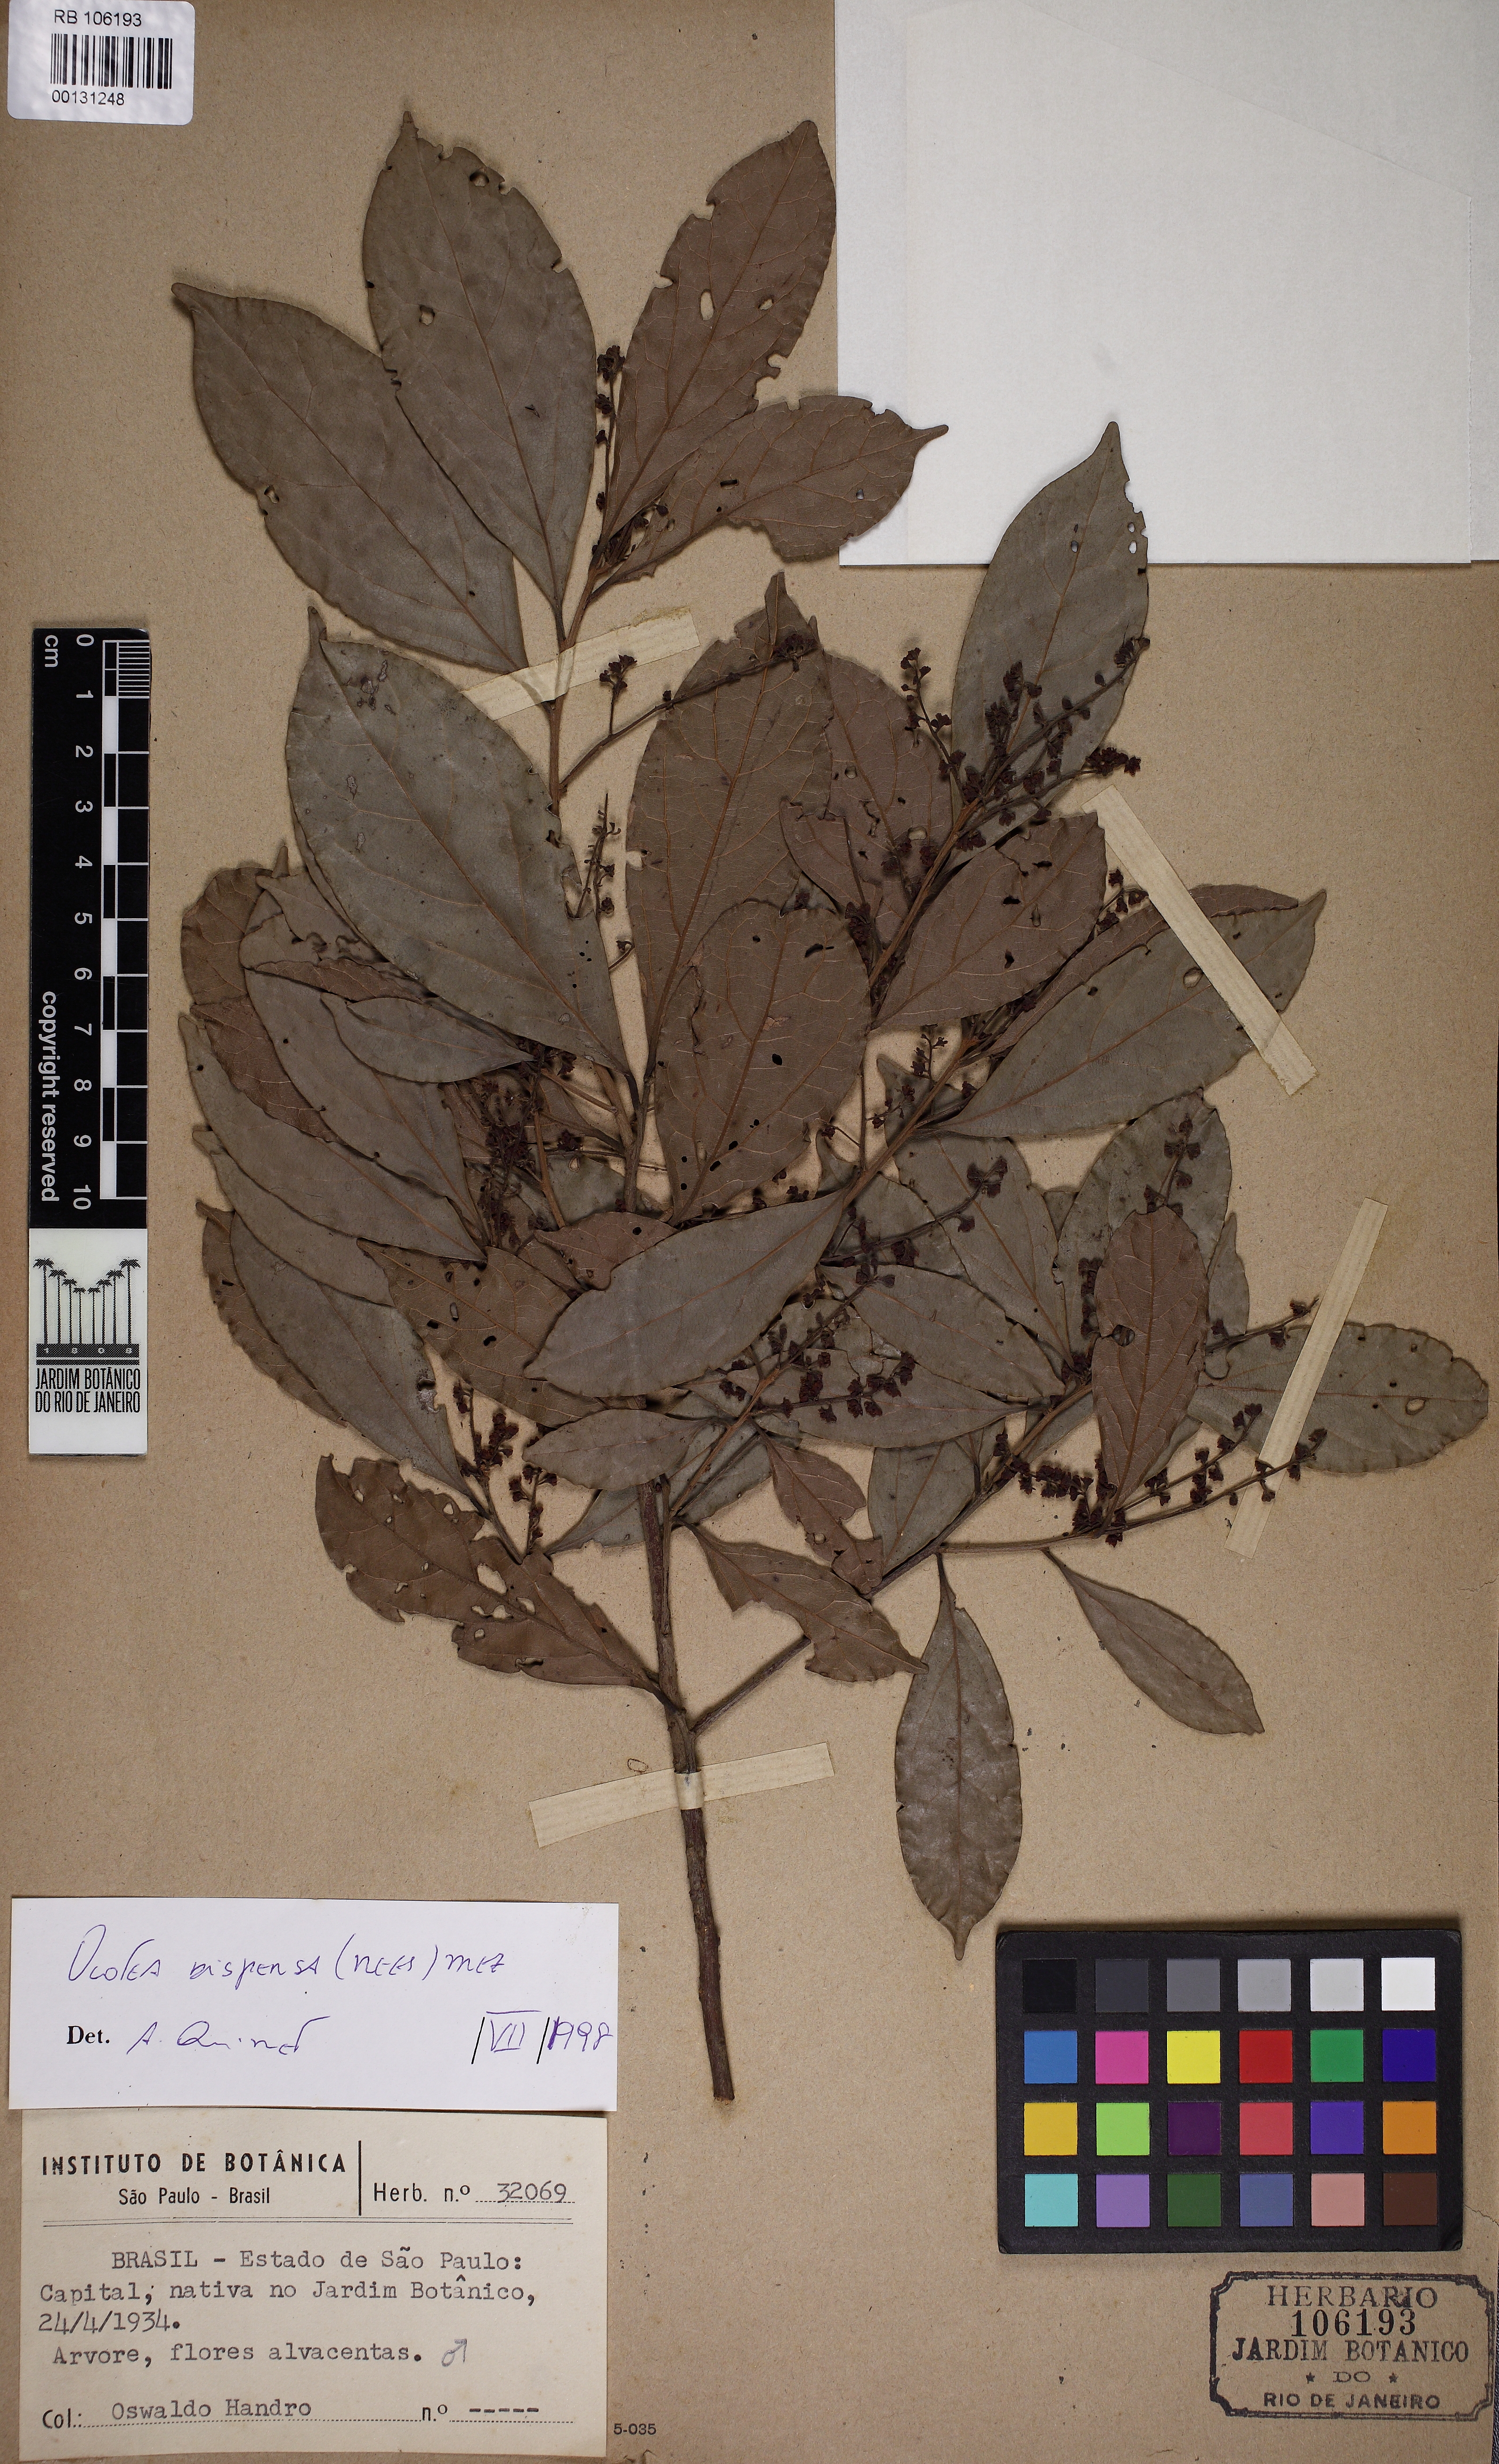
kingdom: Plantae
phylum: Tracheophyta
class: Magnoliopsida
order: Laurales
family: Lauraceae
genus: Ocotea
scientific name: Ocotea dispersa
